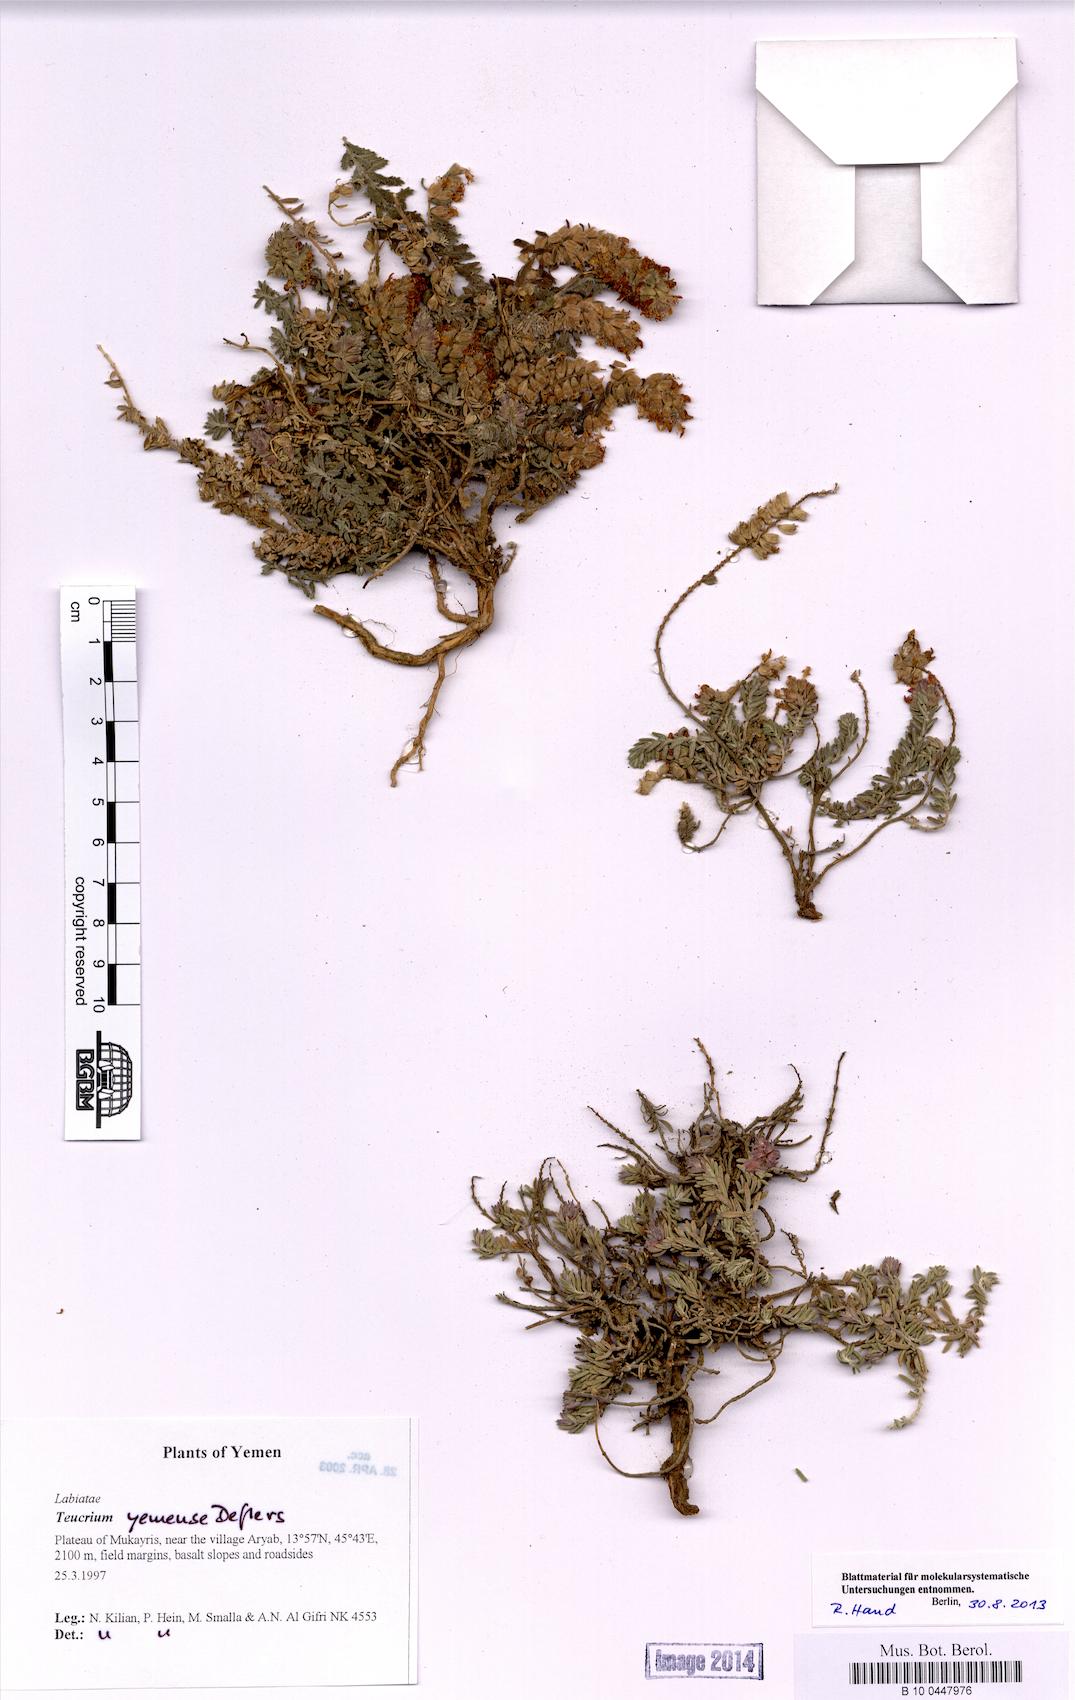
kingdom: Plantae
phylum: Tracheophyta
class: Magnoliopsida
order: Lamiales
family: Lamiaceae
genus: Teucrium
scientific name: Teucrium yemense
